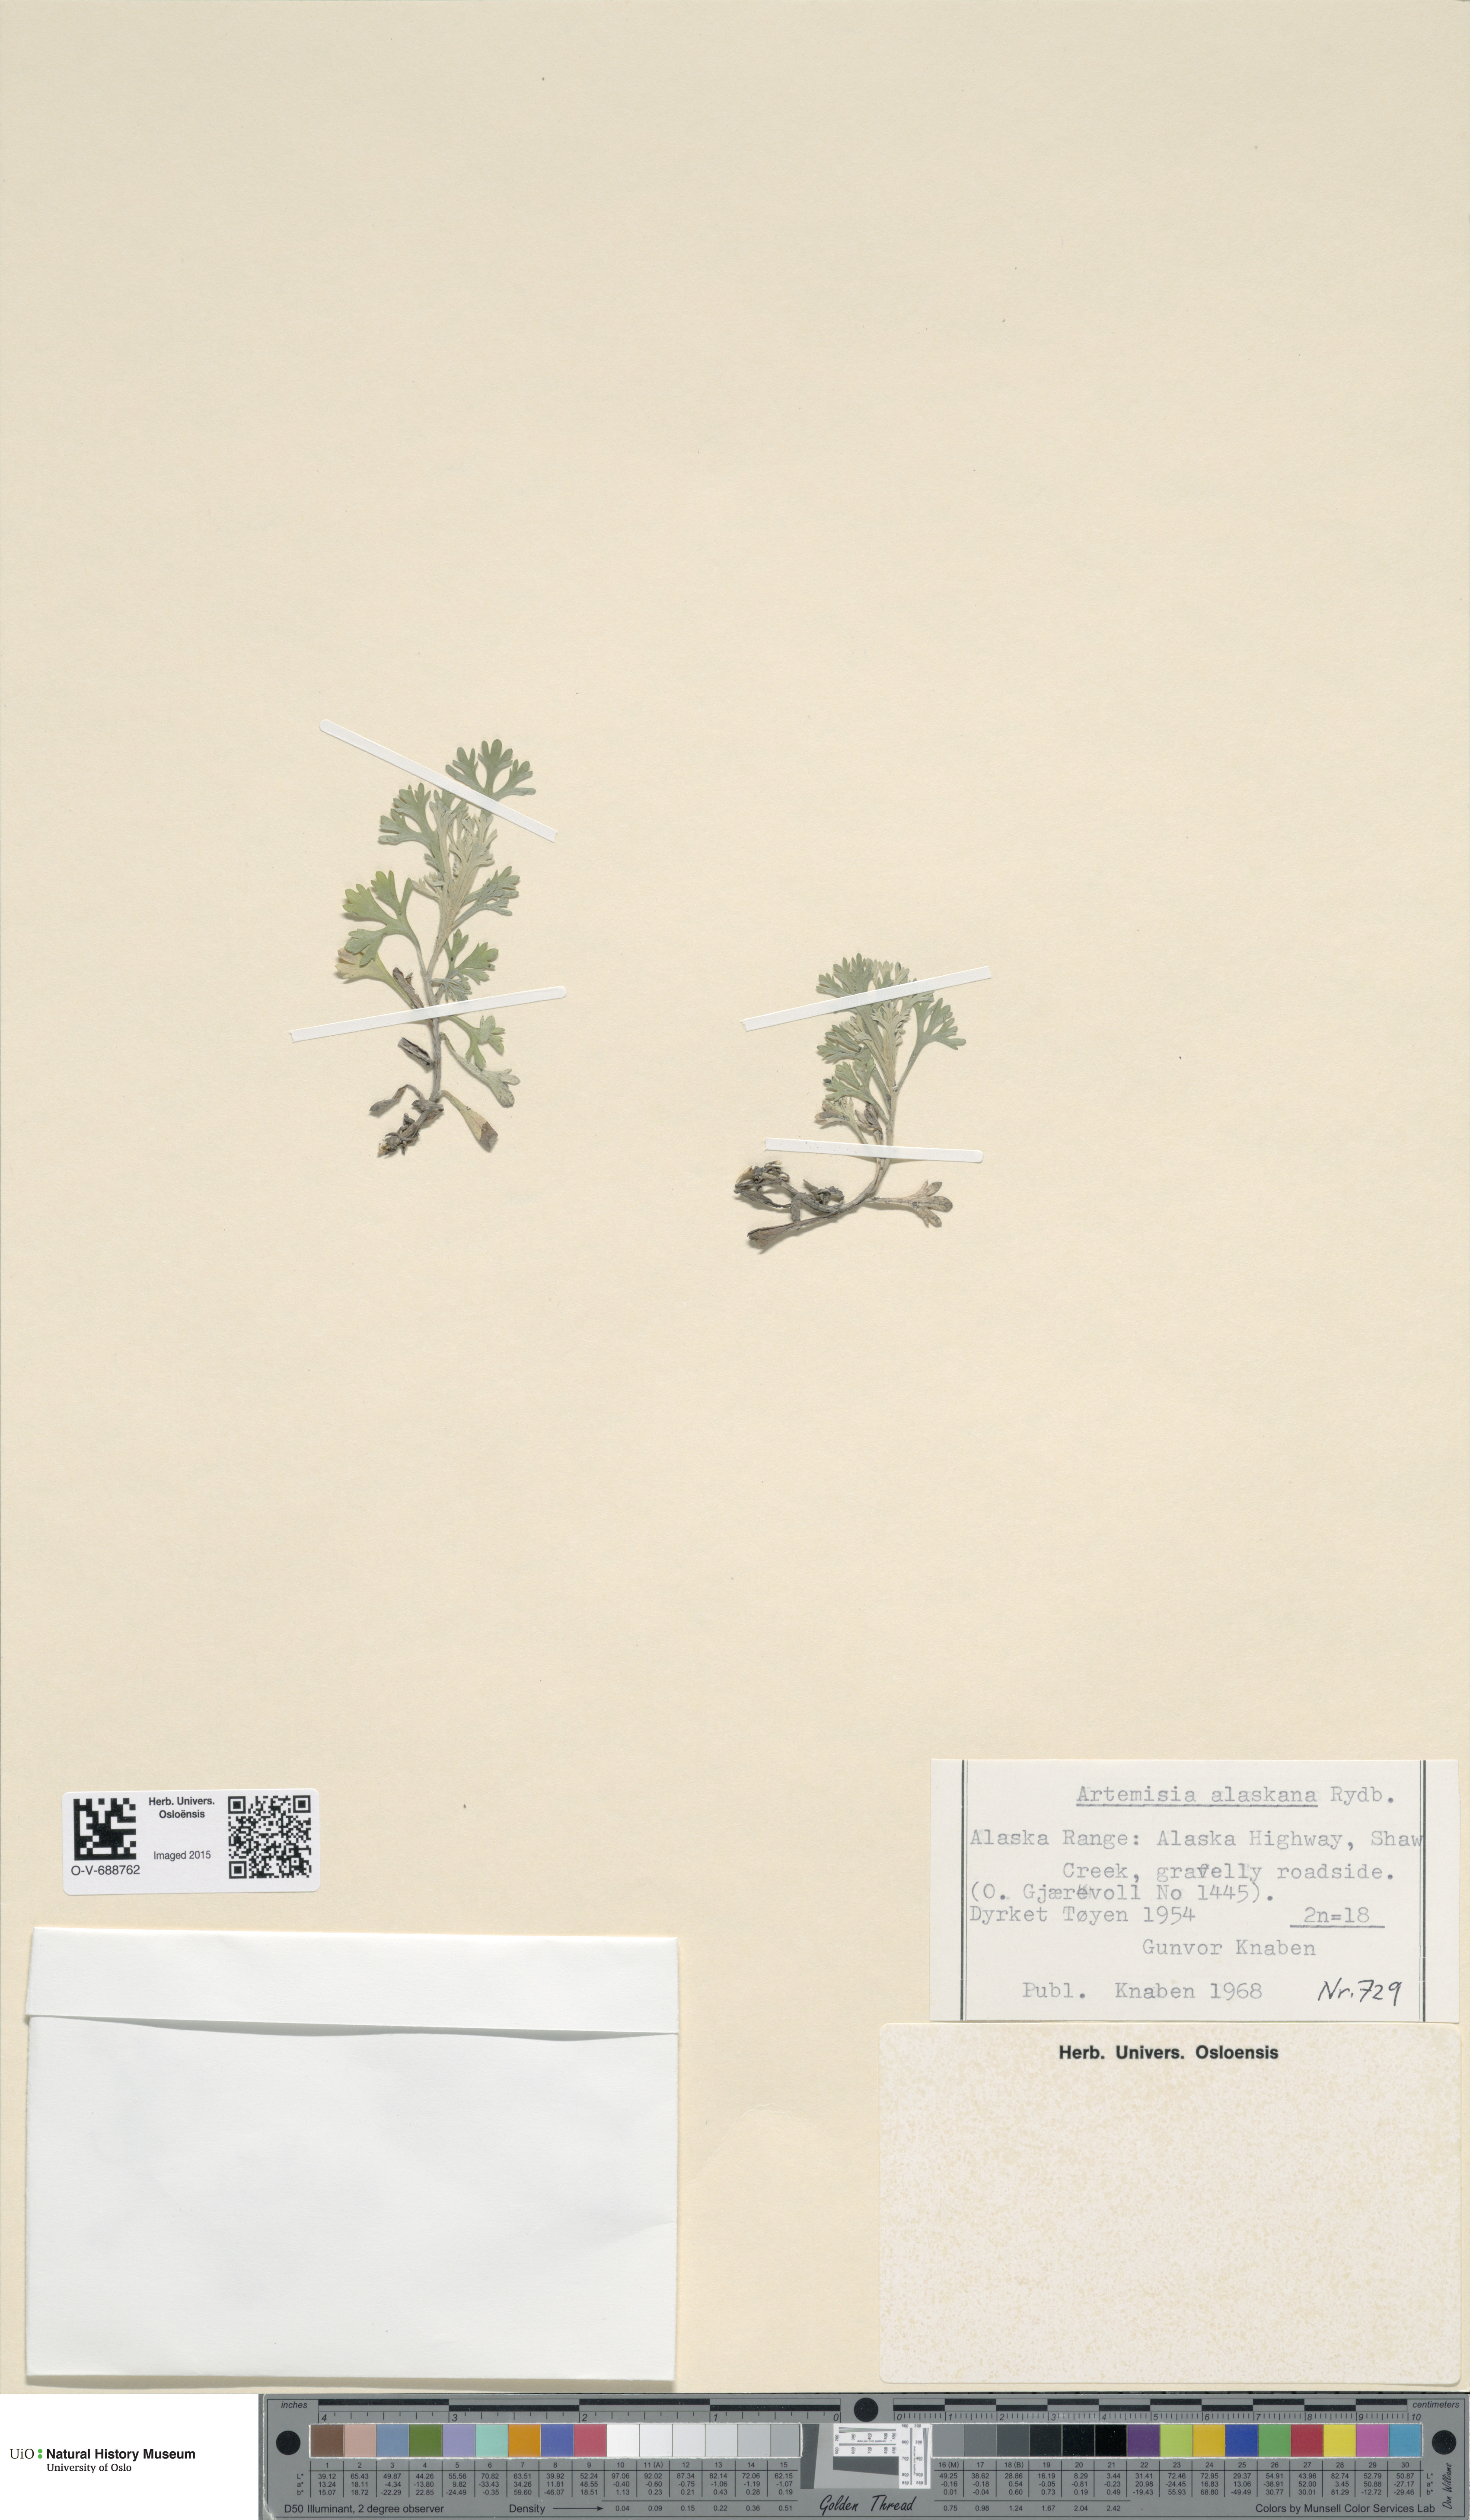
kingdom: Plantae
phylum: Tracheophyta
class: Magnoliopsida
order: Asterales
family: Asteraceae
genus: Artemisia
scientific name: Artemisia kruhsiana
